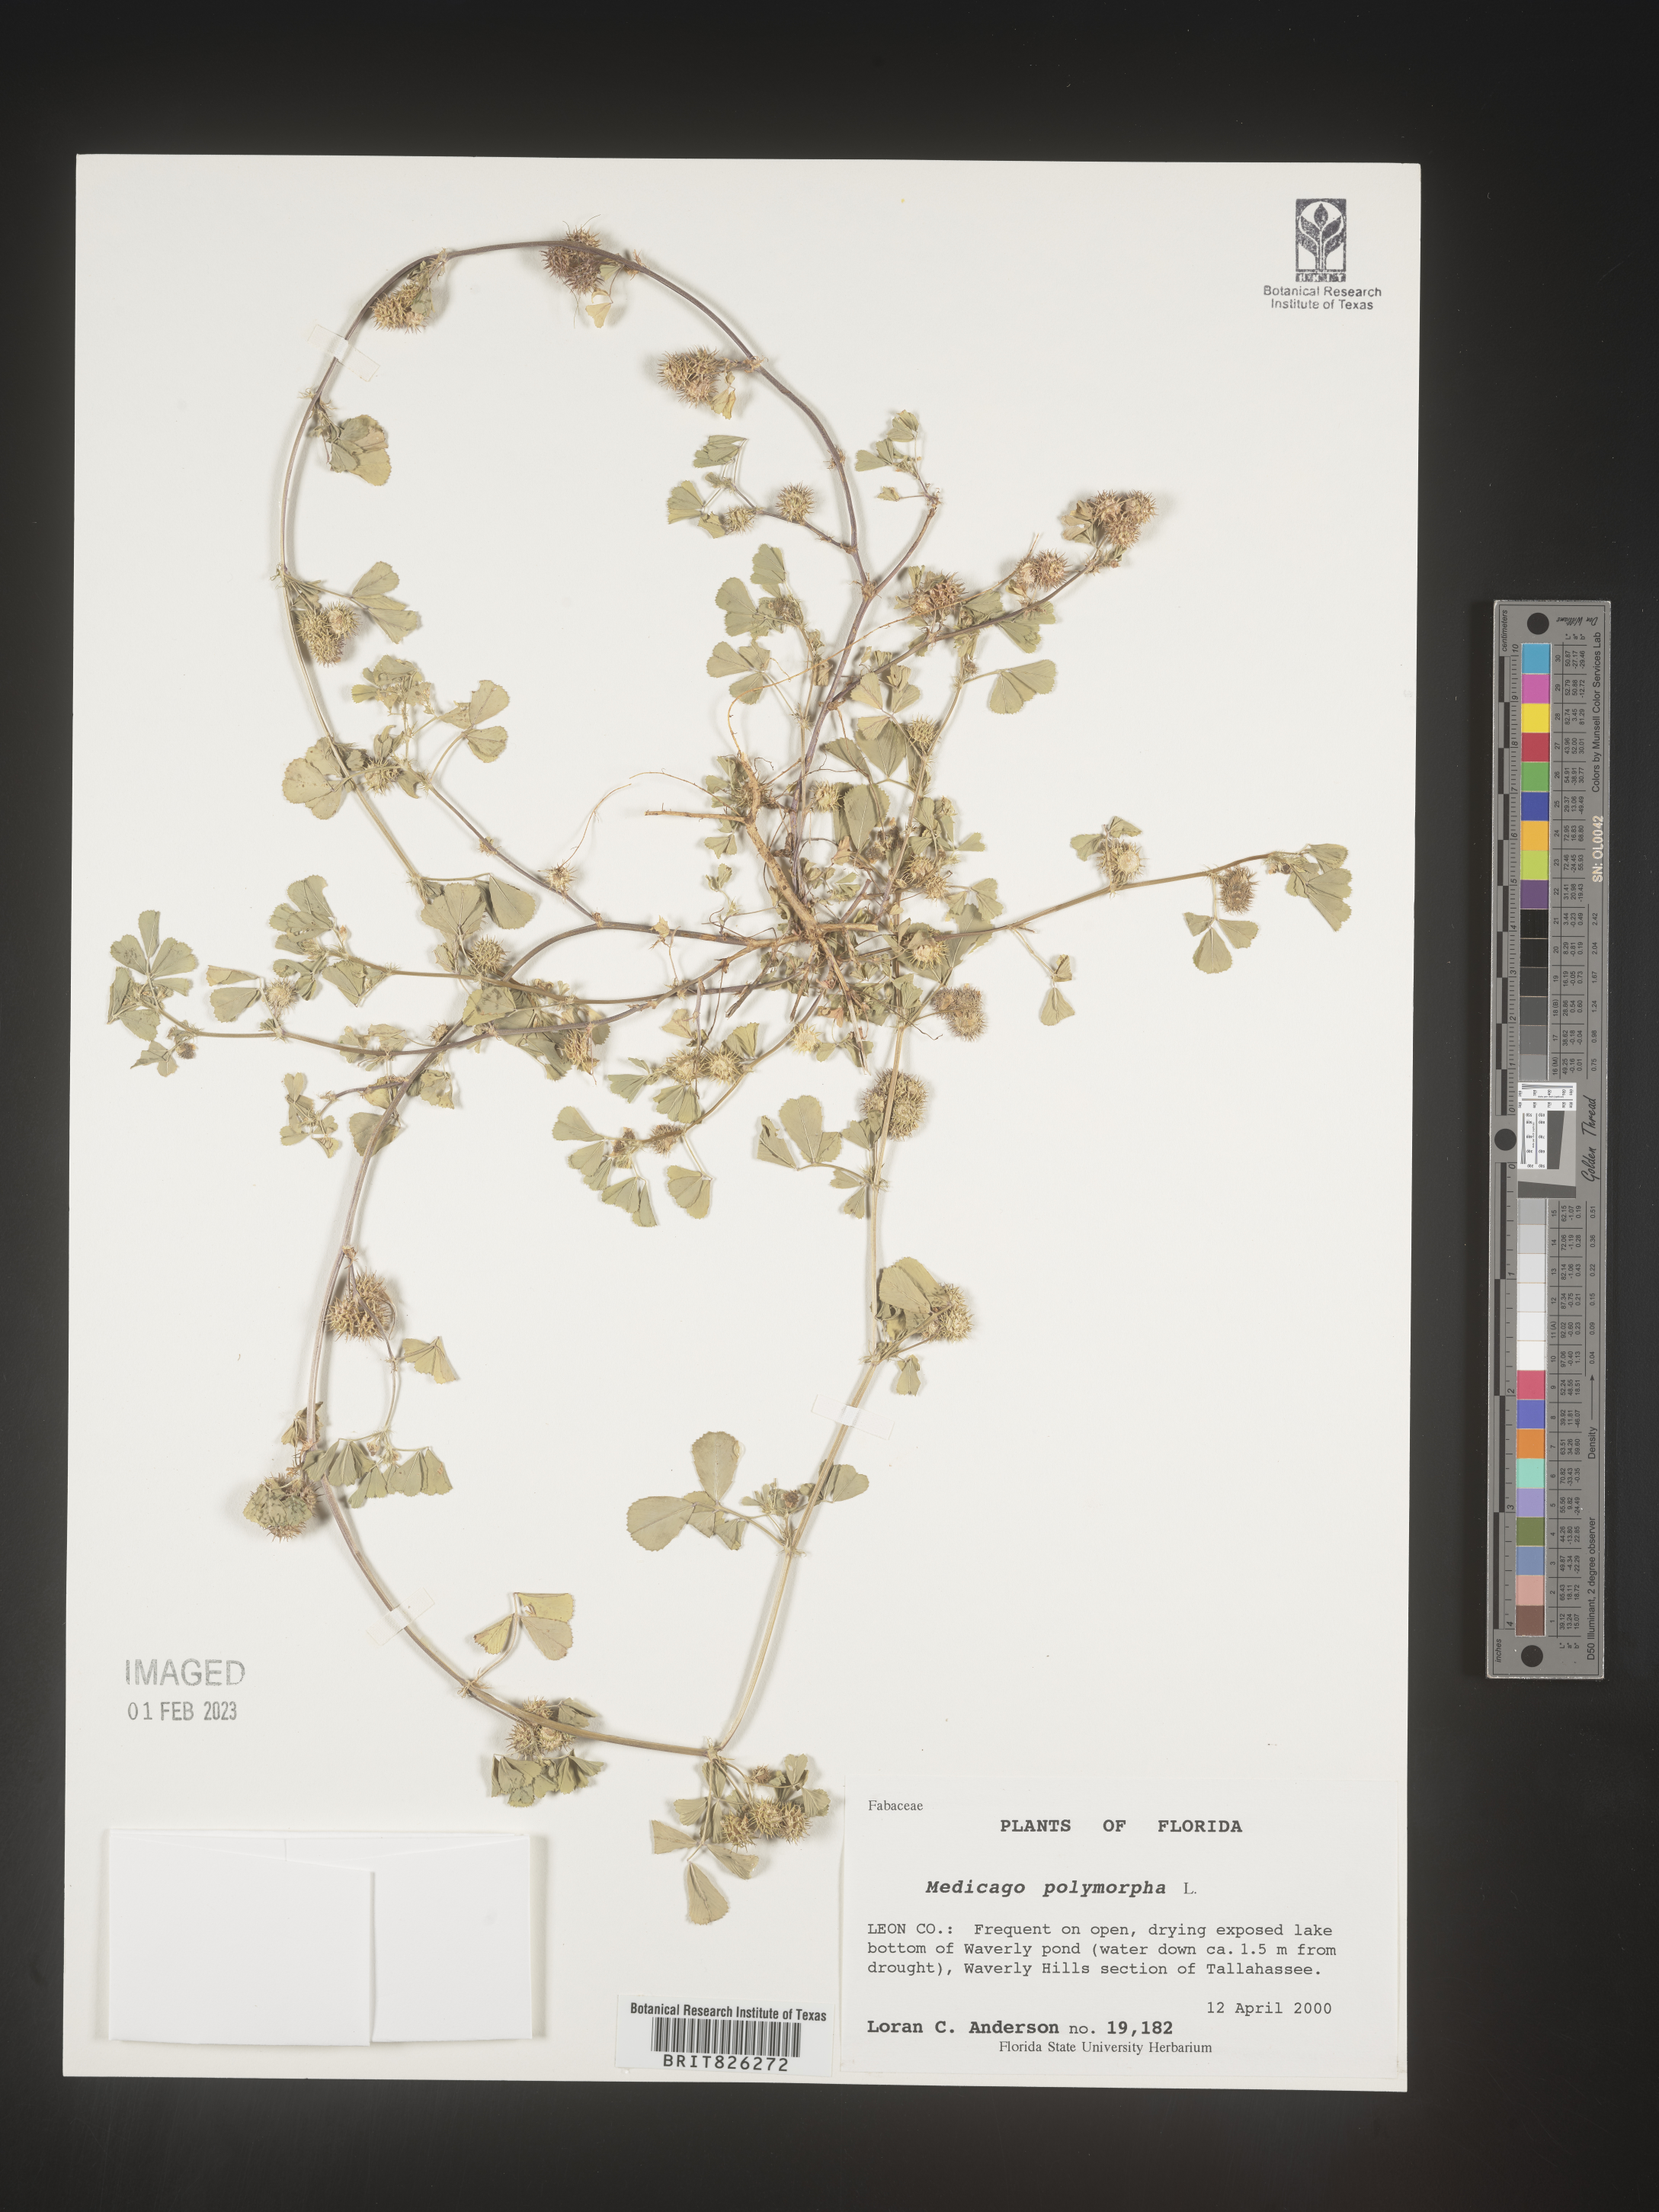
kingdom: Plantae
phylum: Tracheophyta
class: Magnoliopsida
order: Fabales
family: Fabaceae
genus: Medicago
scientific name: Medicago polymorpha
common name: Burclover
